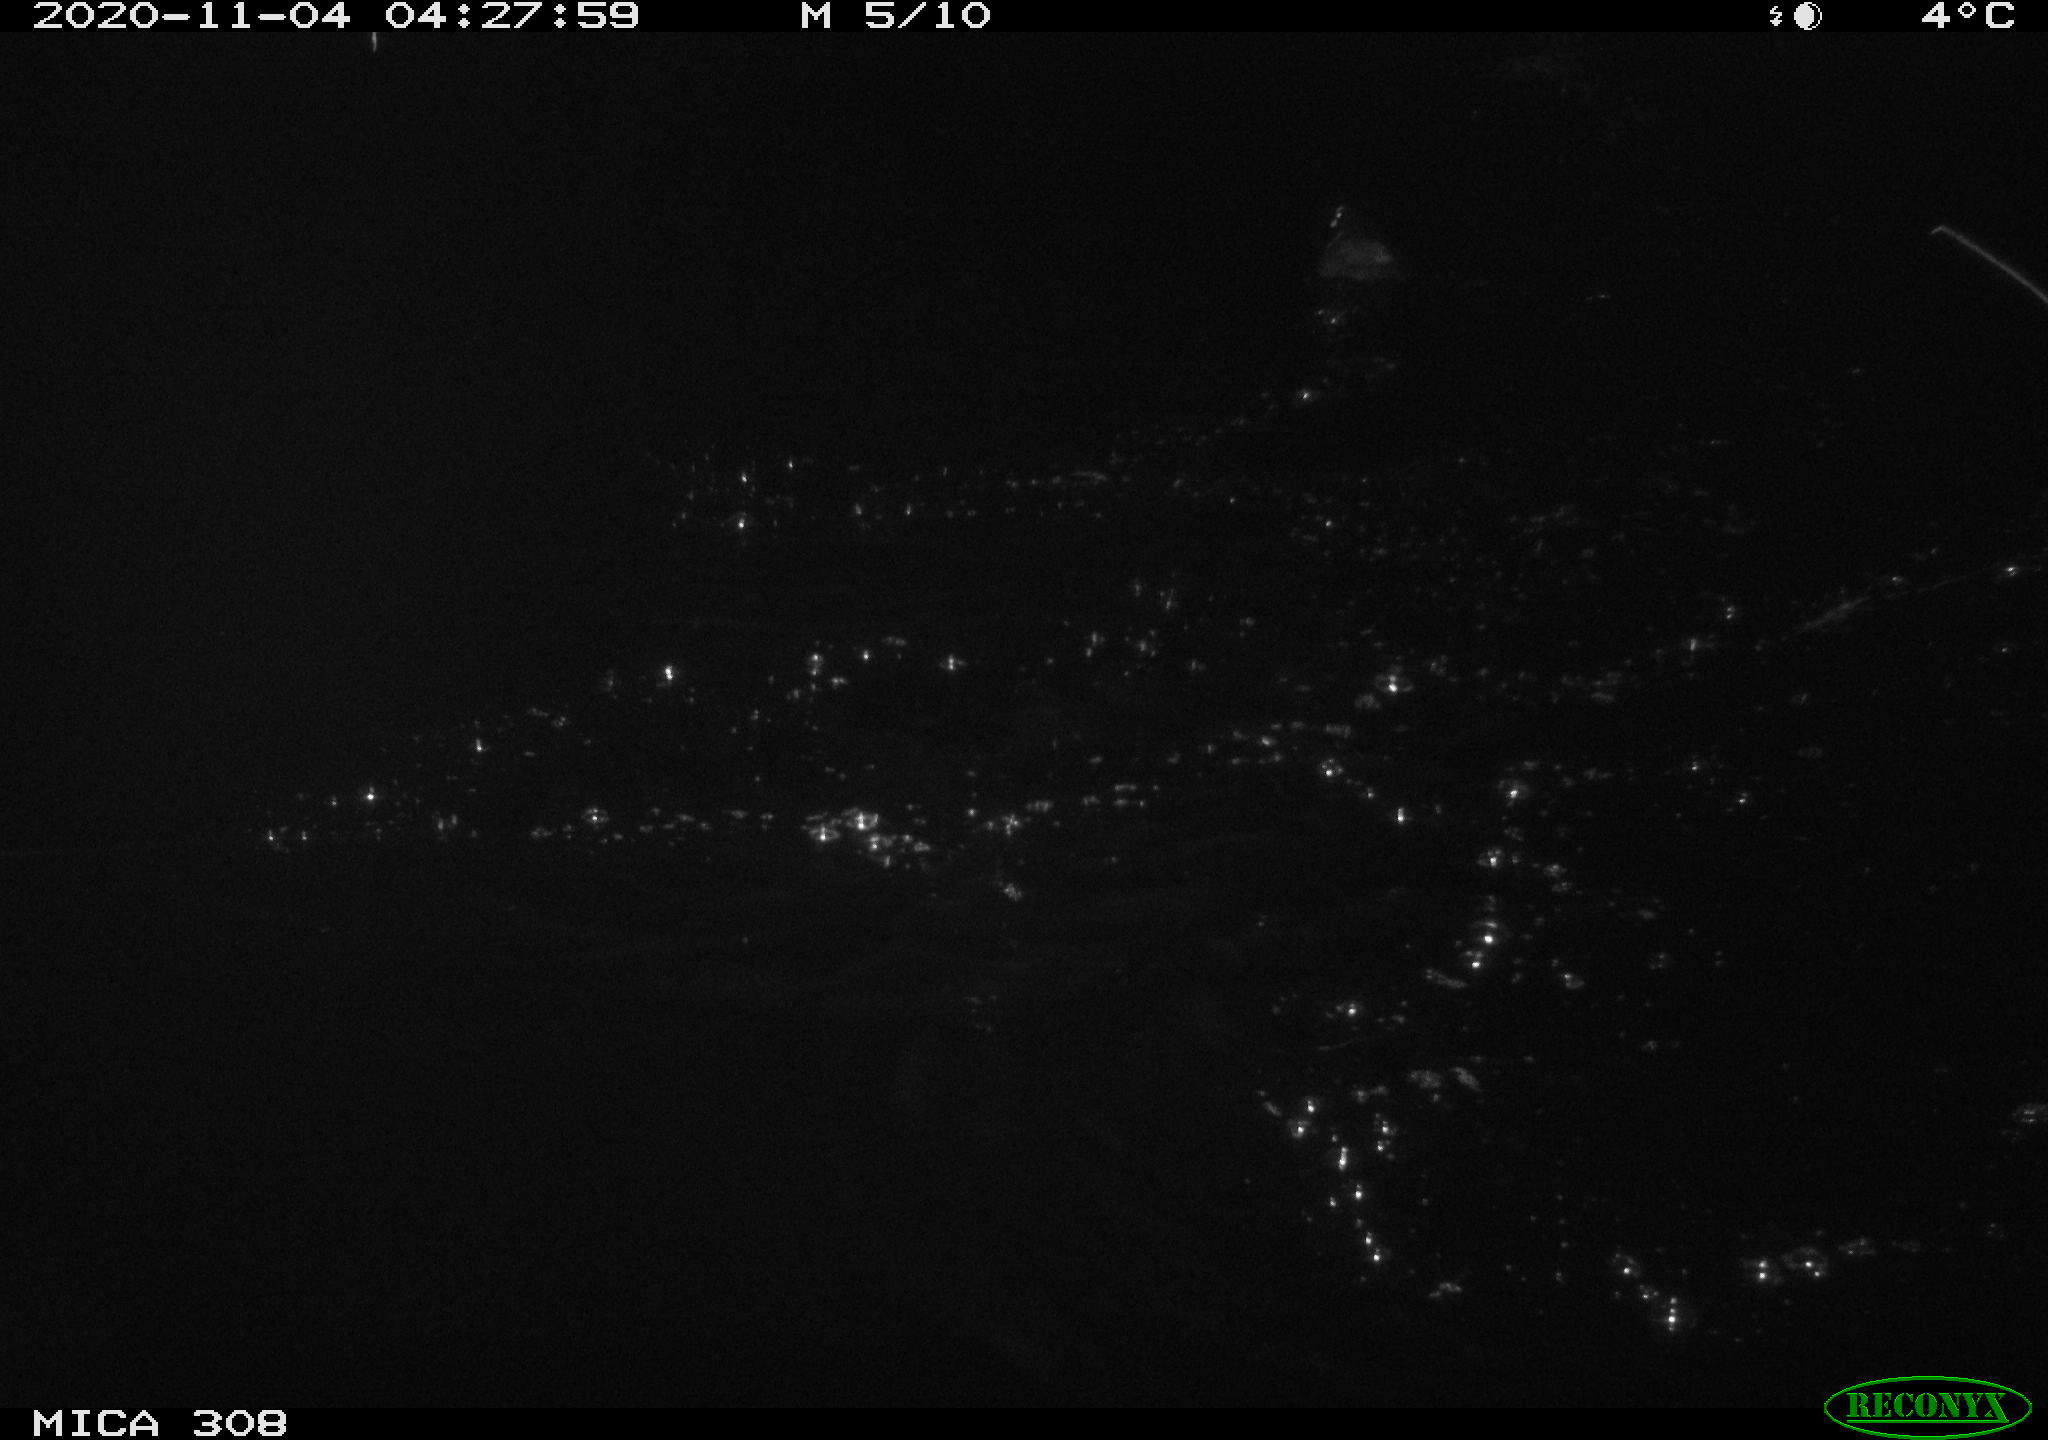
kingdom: Animalia
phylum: Chordata
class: Aves
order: Gruiformes
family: Rallidae
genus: Fulica
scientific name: Fulica atra
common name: Eurasian coot
